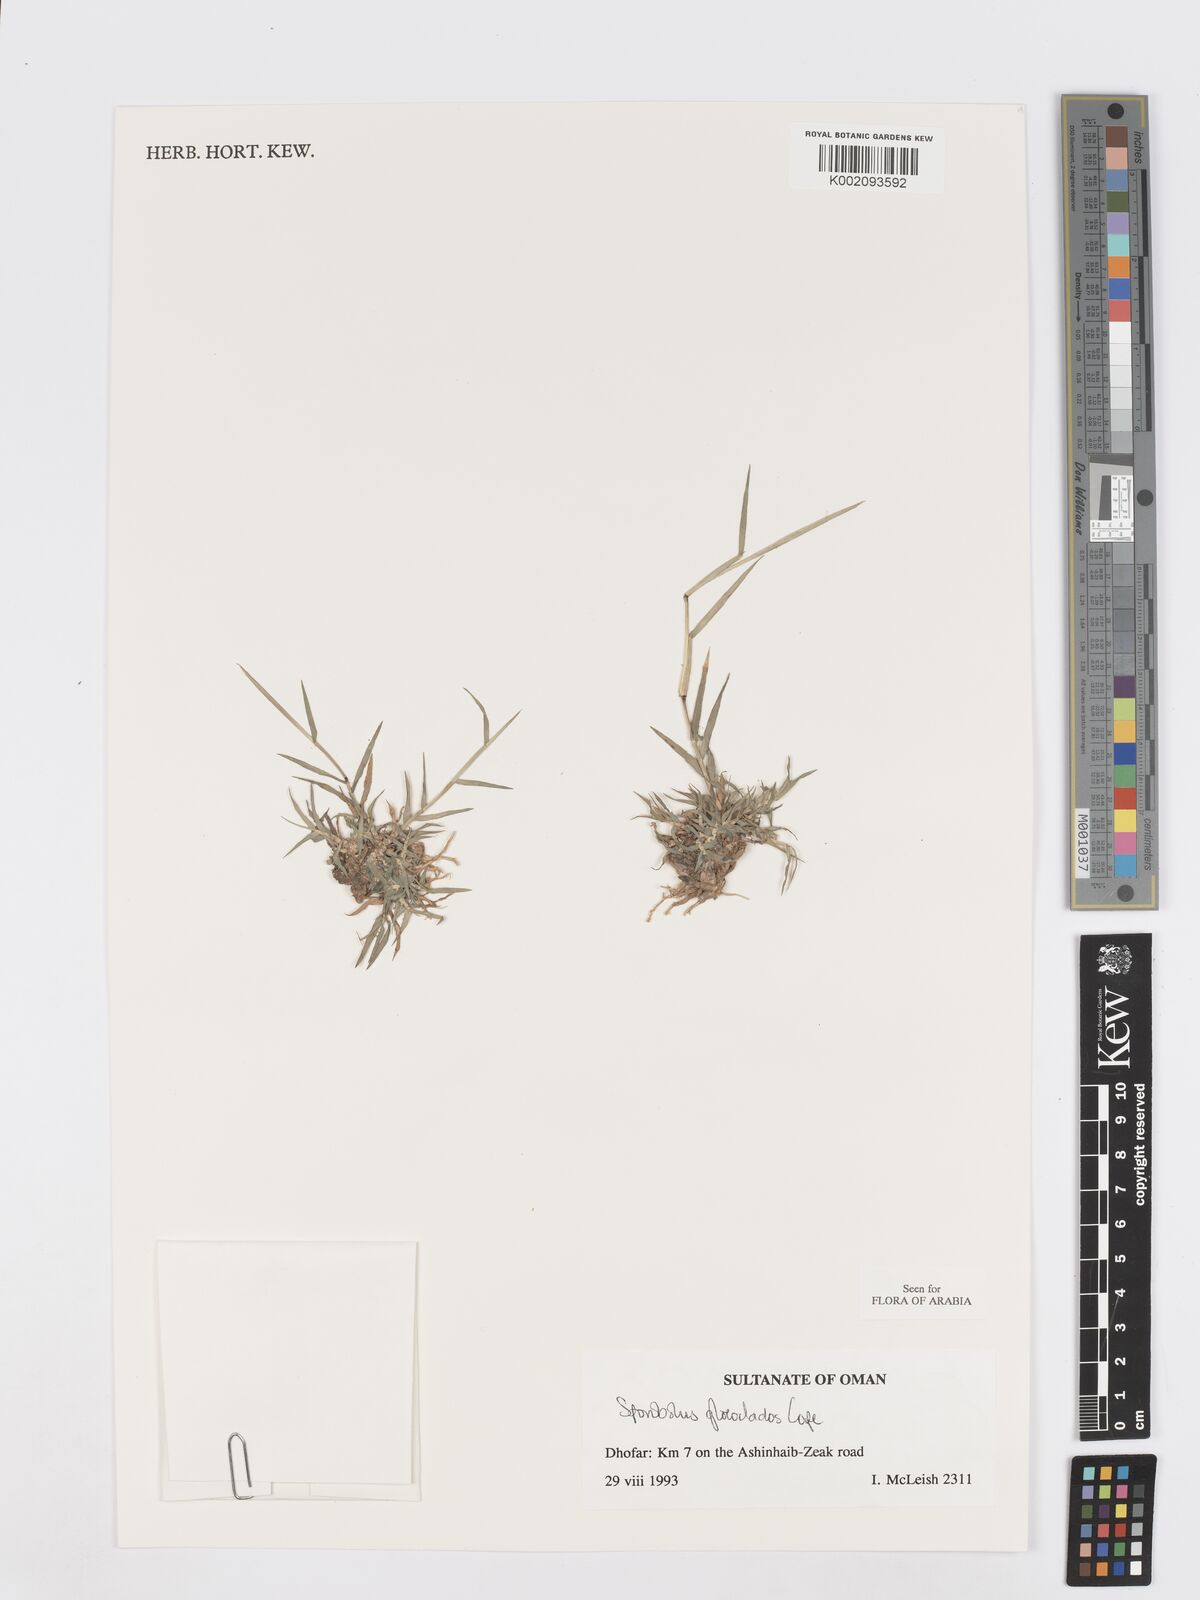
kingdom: Plantae
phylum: Tracheophyta
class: Liliopsida
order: Poales
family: Poaceae
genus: Sporobolus
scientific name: Sporobolus gloeoclados
